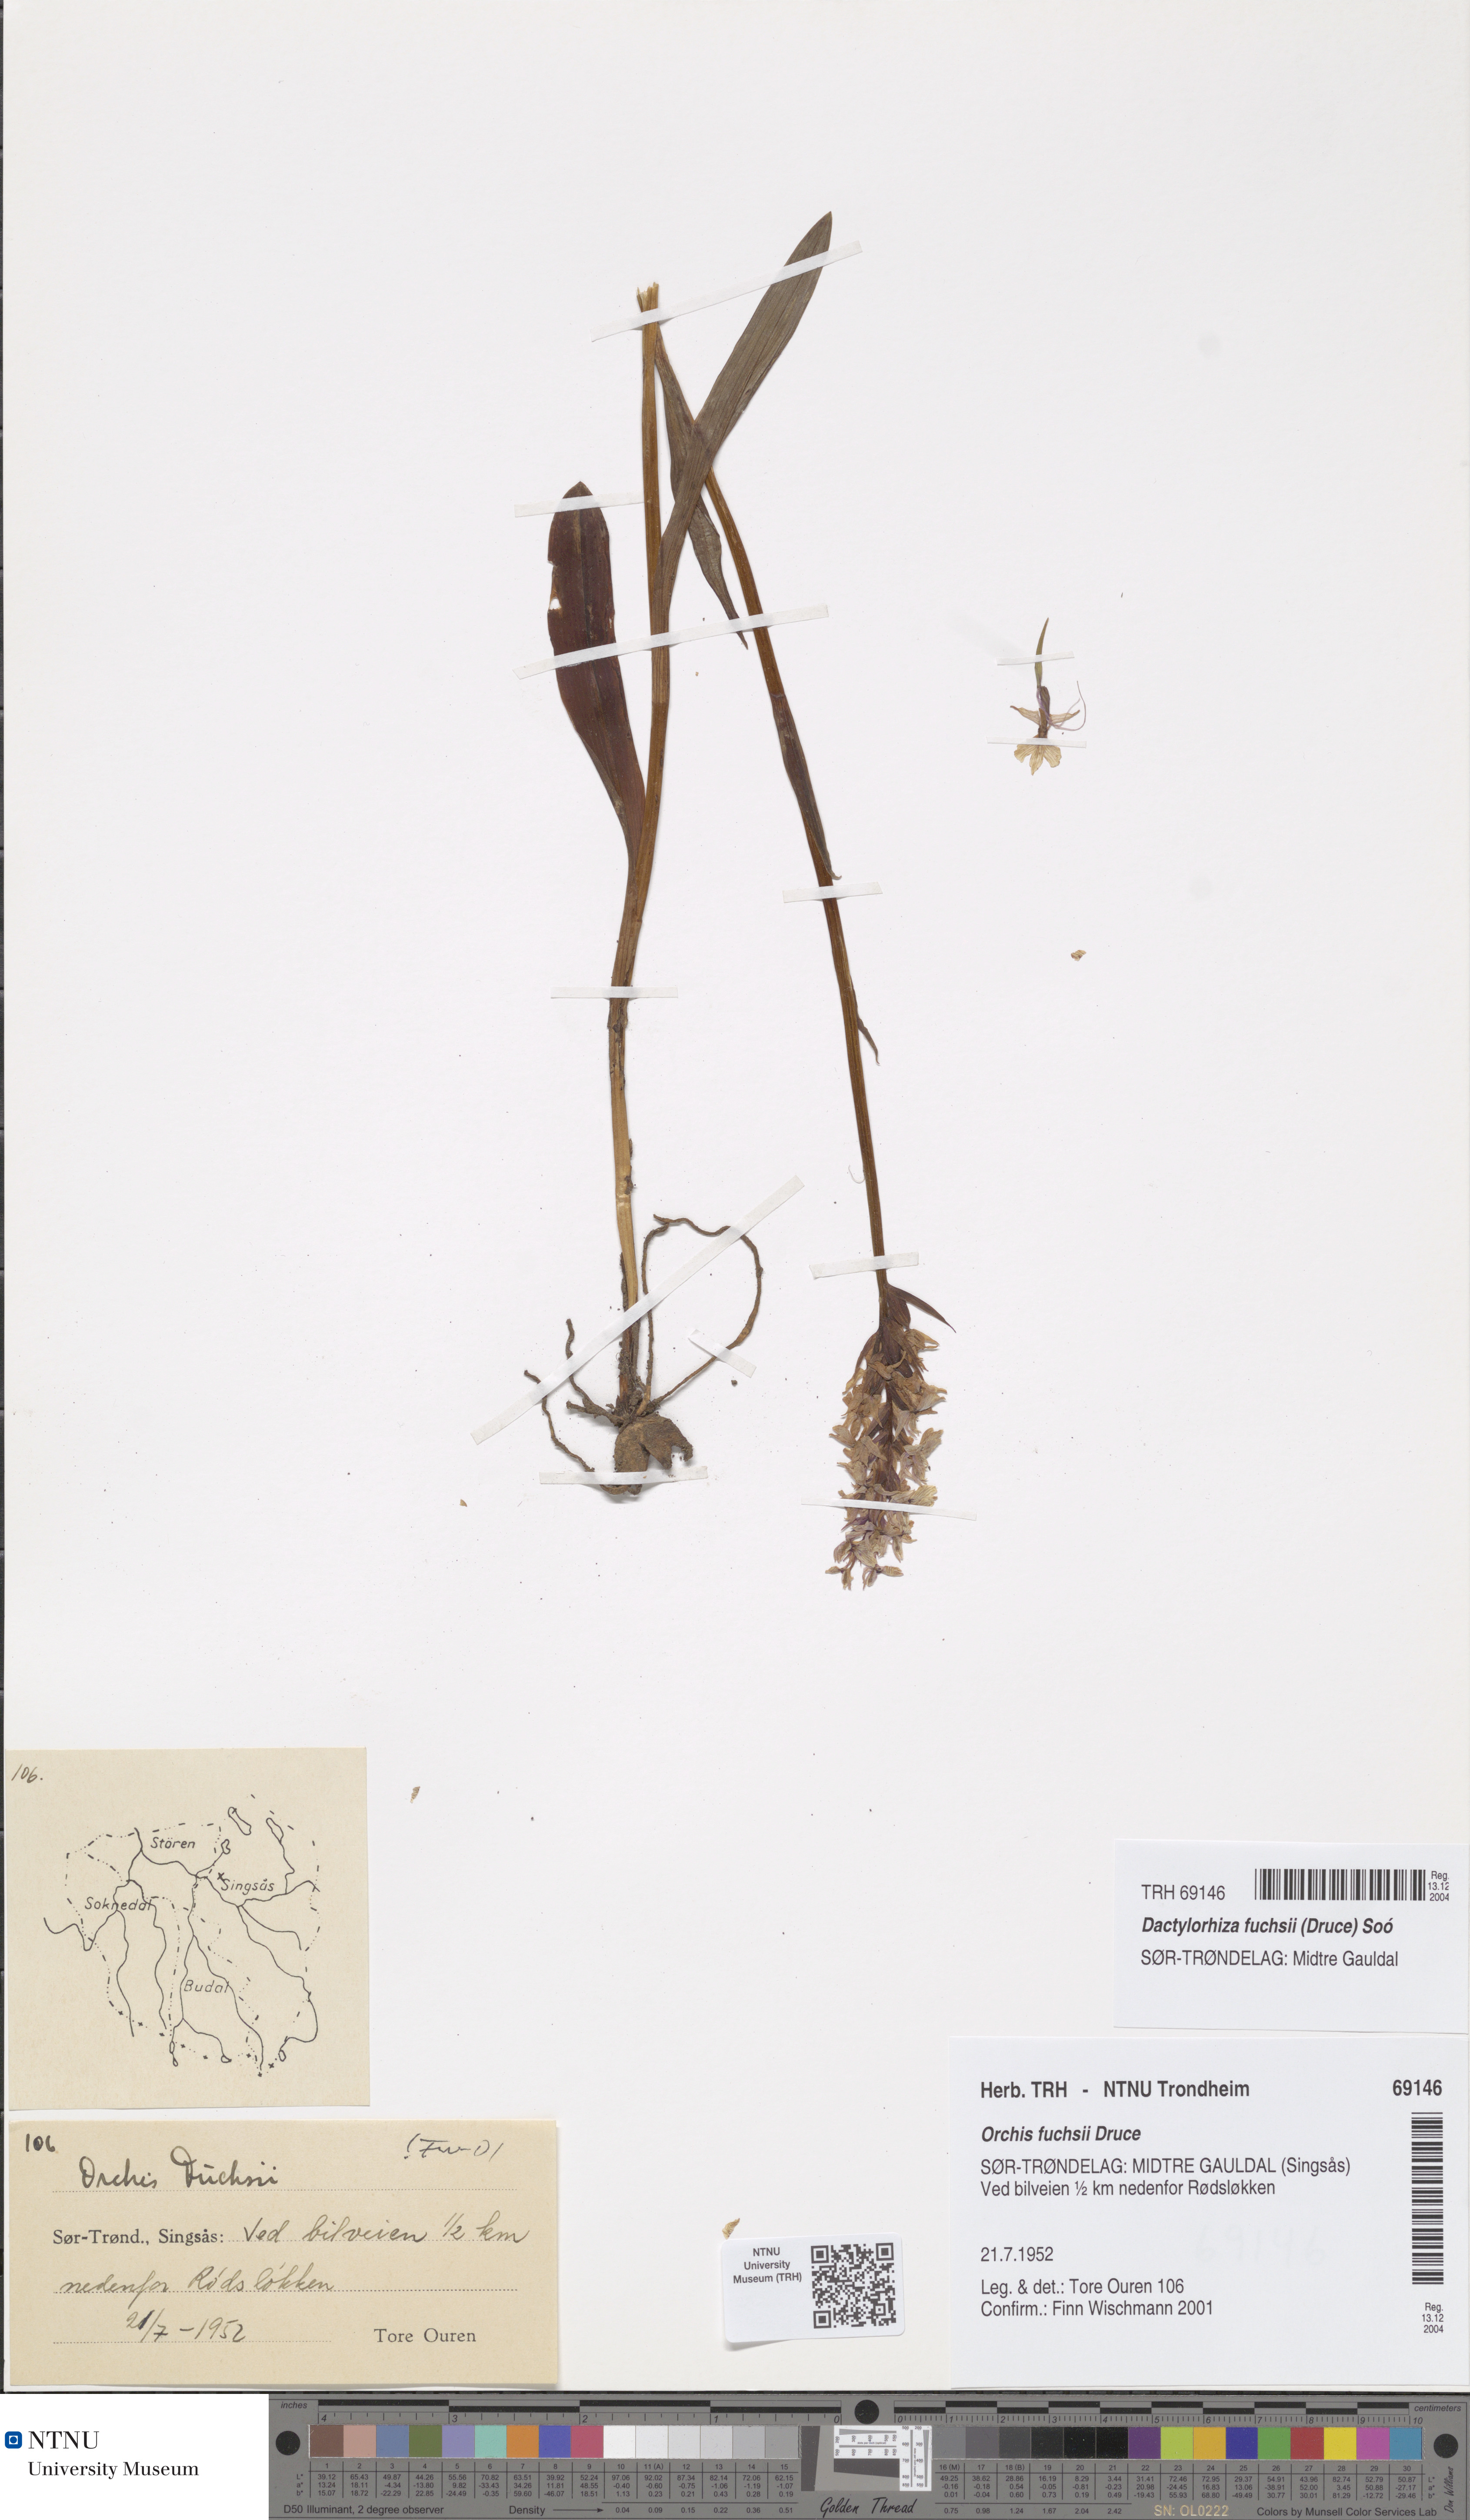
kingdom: Plantae
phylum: Tracheophyta
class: Liliopsida
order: Asparagales
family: Orchidaceae
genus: Dactylorhiza
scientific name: Dactylorhiza maculata
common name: Heath spotted-orchid
